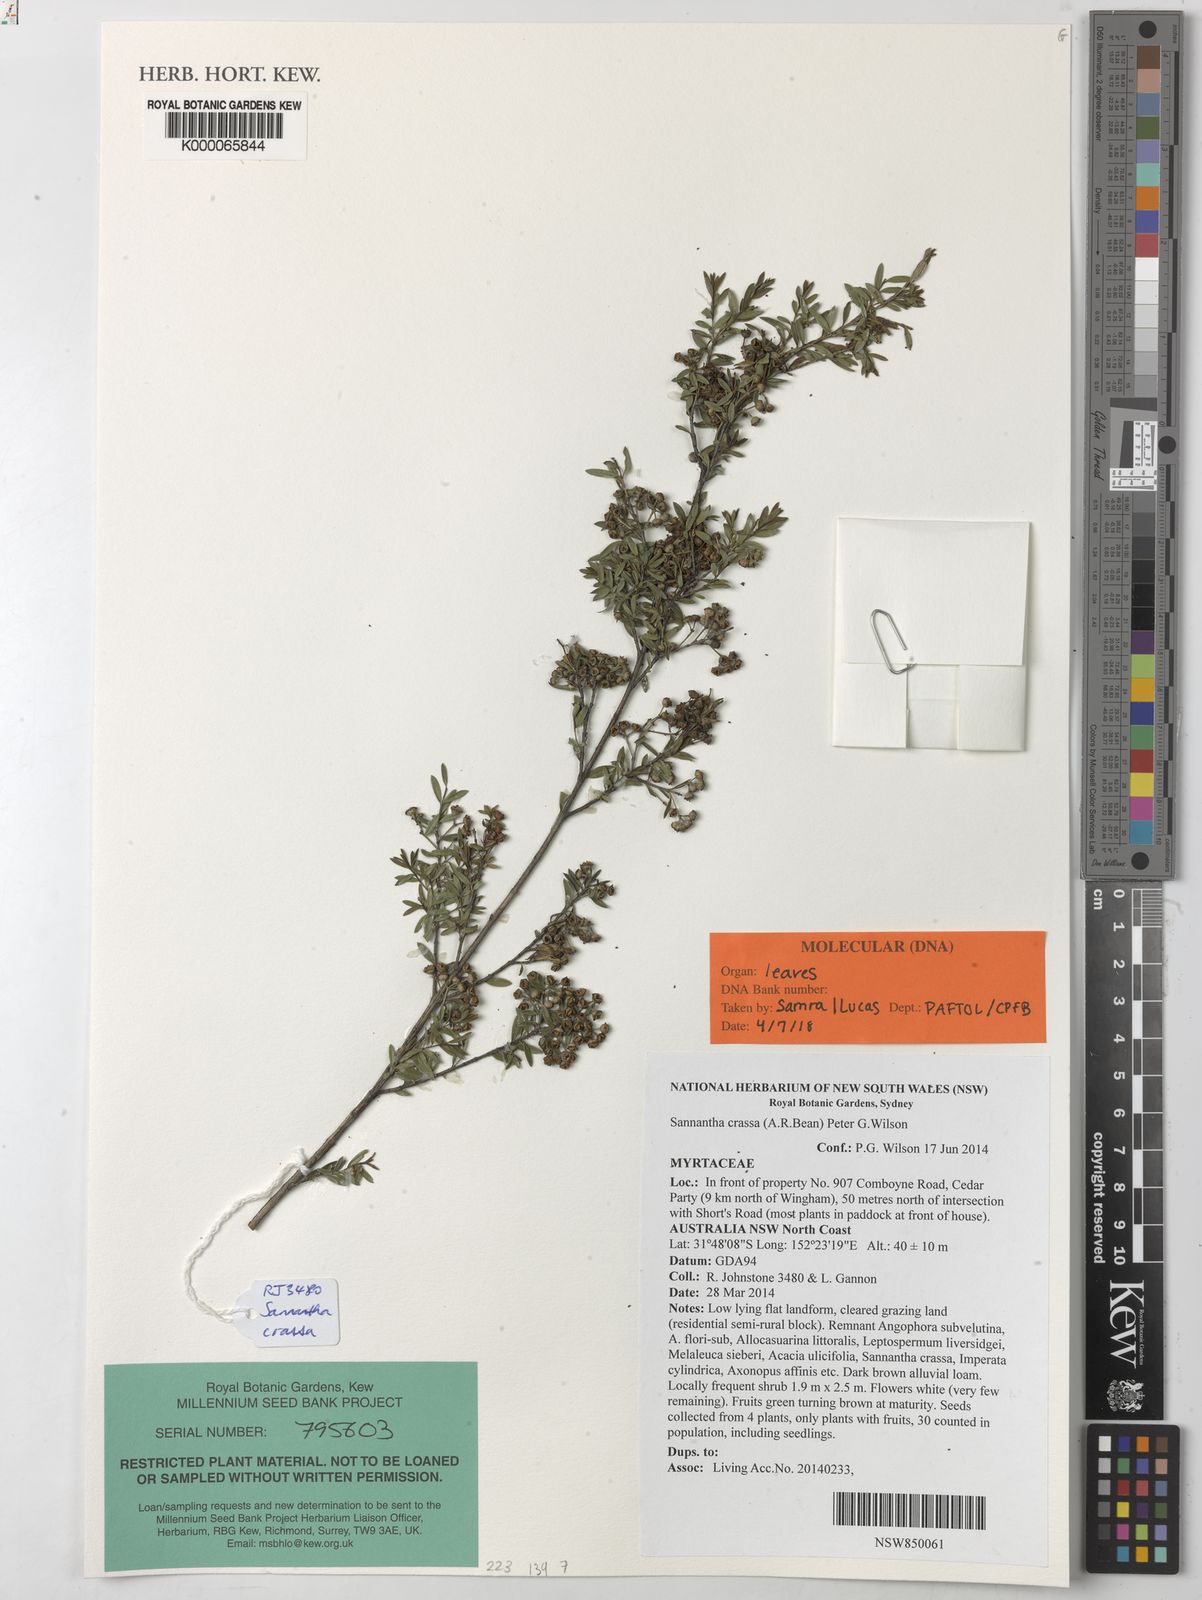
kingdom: Plantae
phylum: Tracheophyta
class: Magnoliopsida
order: Myrtales
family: Myrtaceae
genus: Sannantha
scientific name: Sannantha crassa
